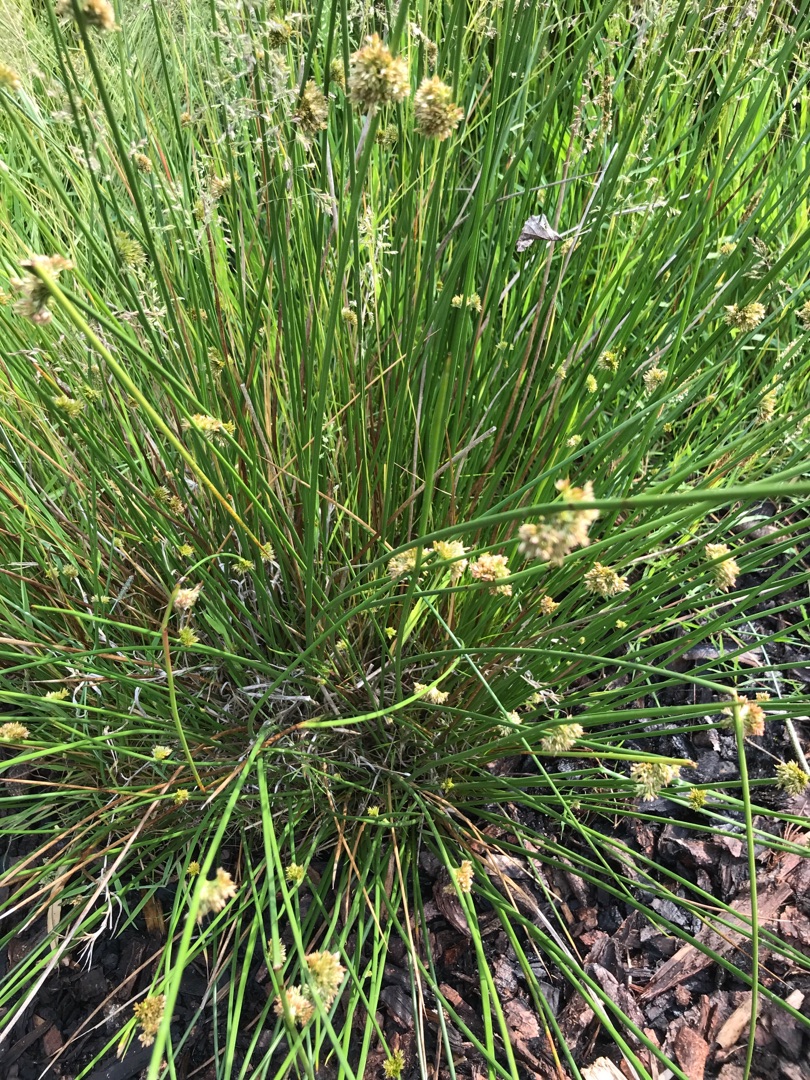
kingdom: Plantae
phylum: Tracheophyta
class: Liliopsida
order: Poales
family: Juncaceae
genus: Juncus
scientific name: Juncus effusus
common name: Lyse-siv
